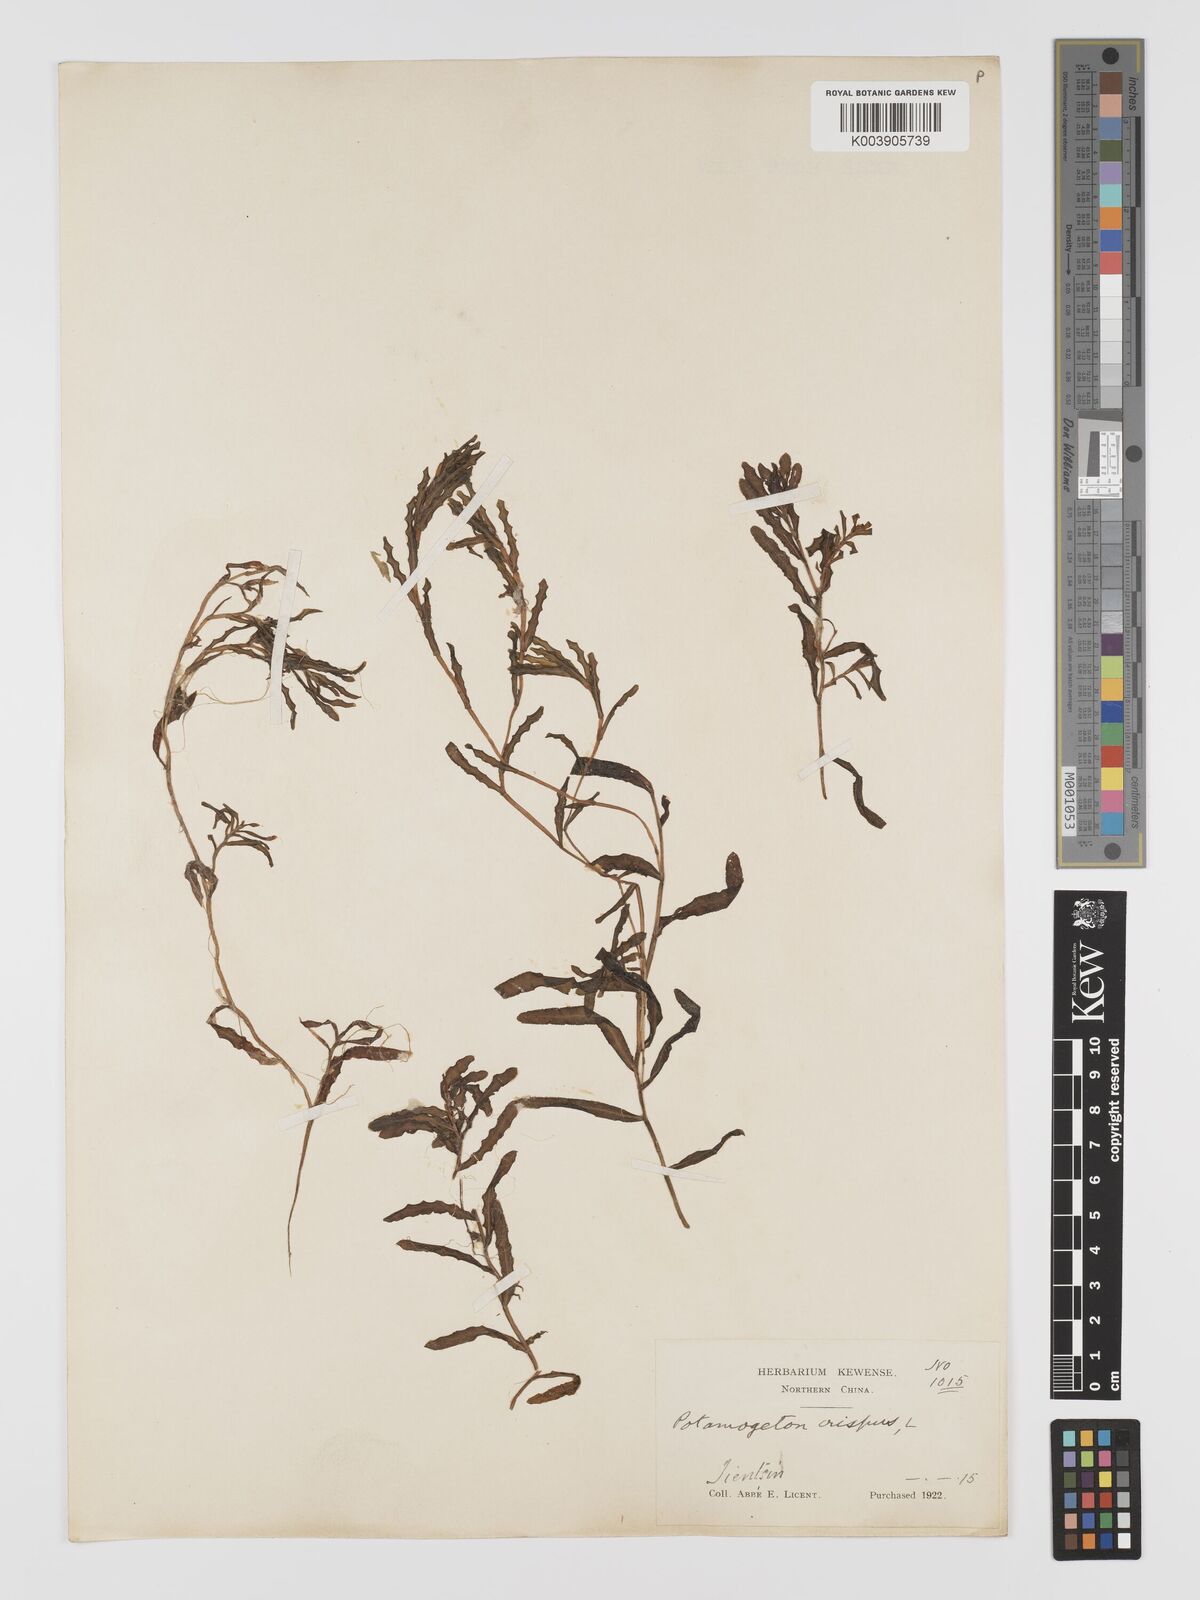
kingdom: Plantae
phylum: Tracheophyta
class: Liliopsida
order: Alismatales
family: Potamogetonaceae
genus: Potamogeton
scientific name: Potamogeton crispus
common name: Curled pondweed
